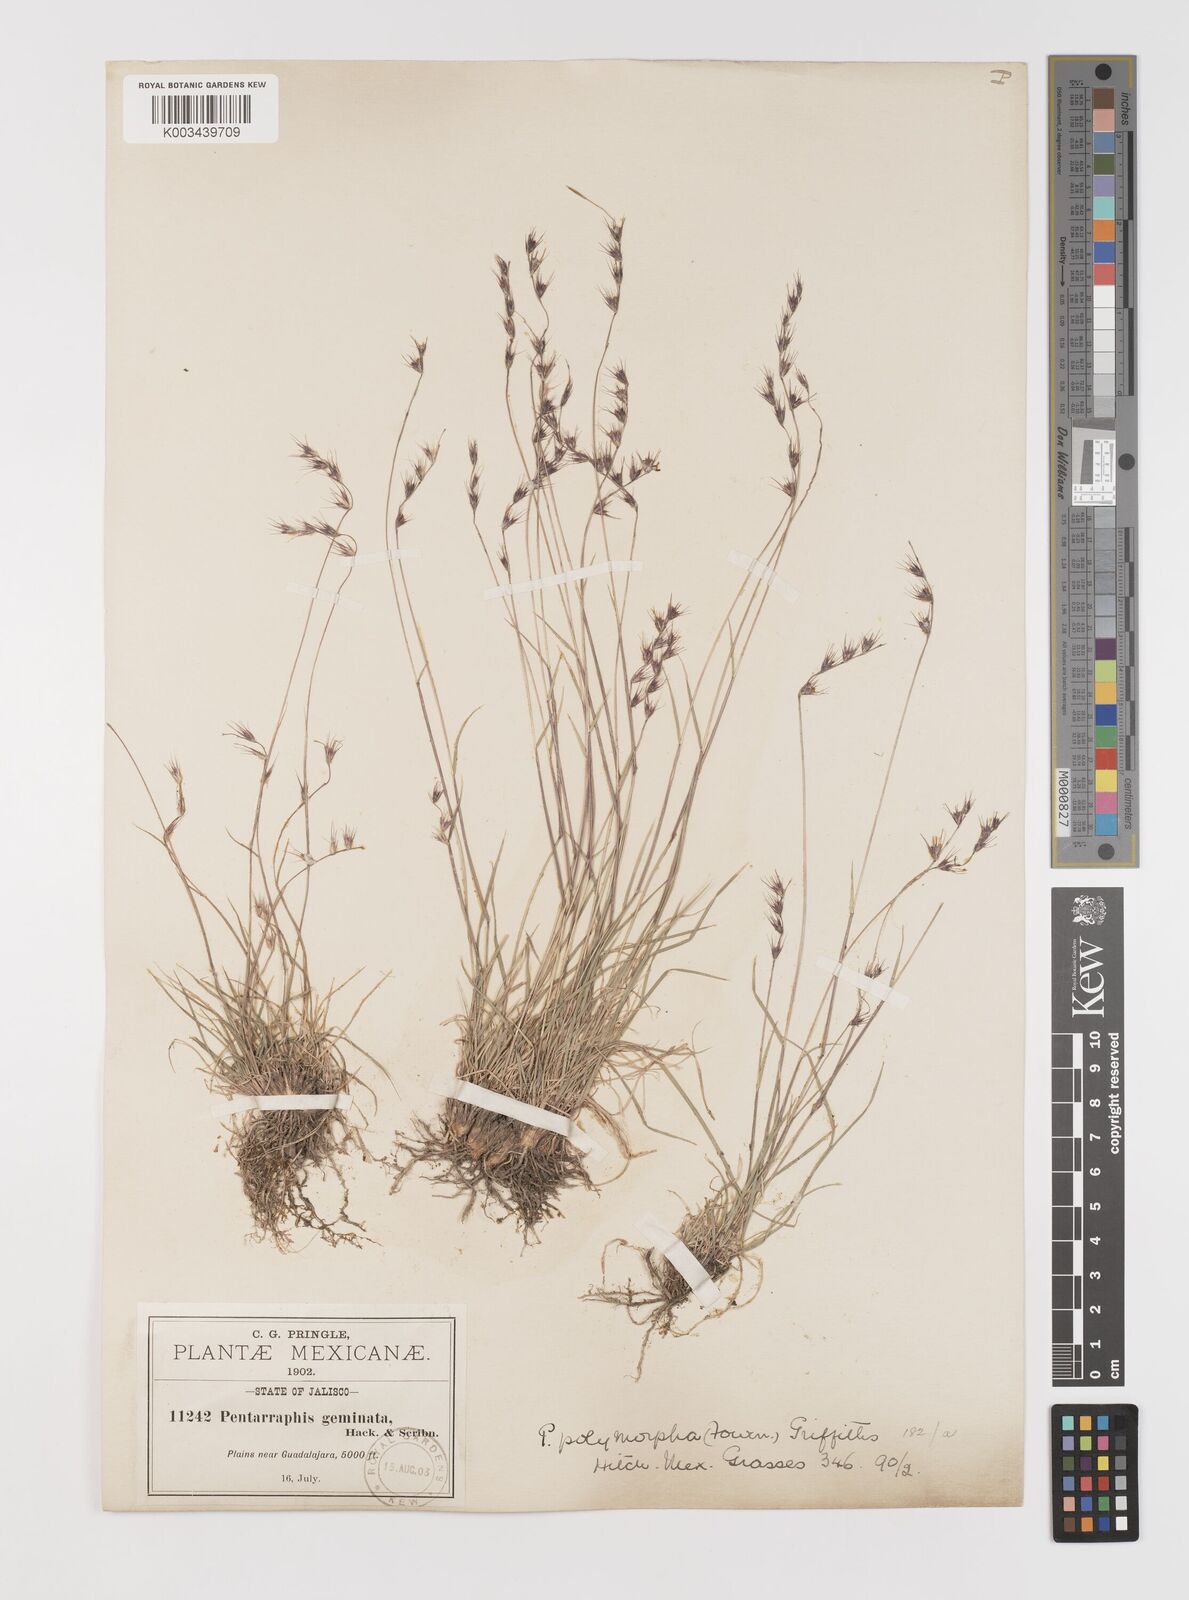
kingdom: Plantae
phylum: Tracheophyta
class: Liliopsida
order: Poales
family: Poaceae
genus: Bouteloua
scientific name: Bouteloua polymorpha
